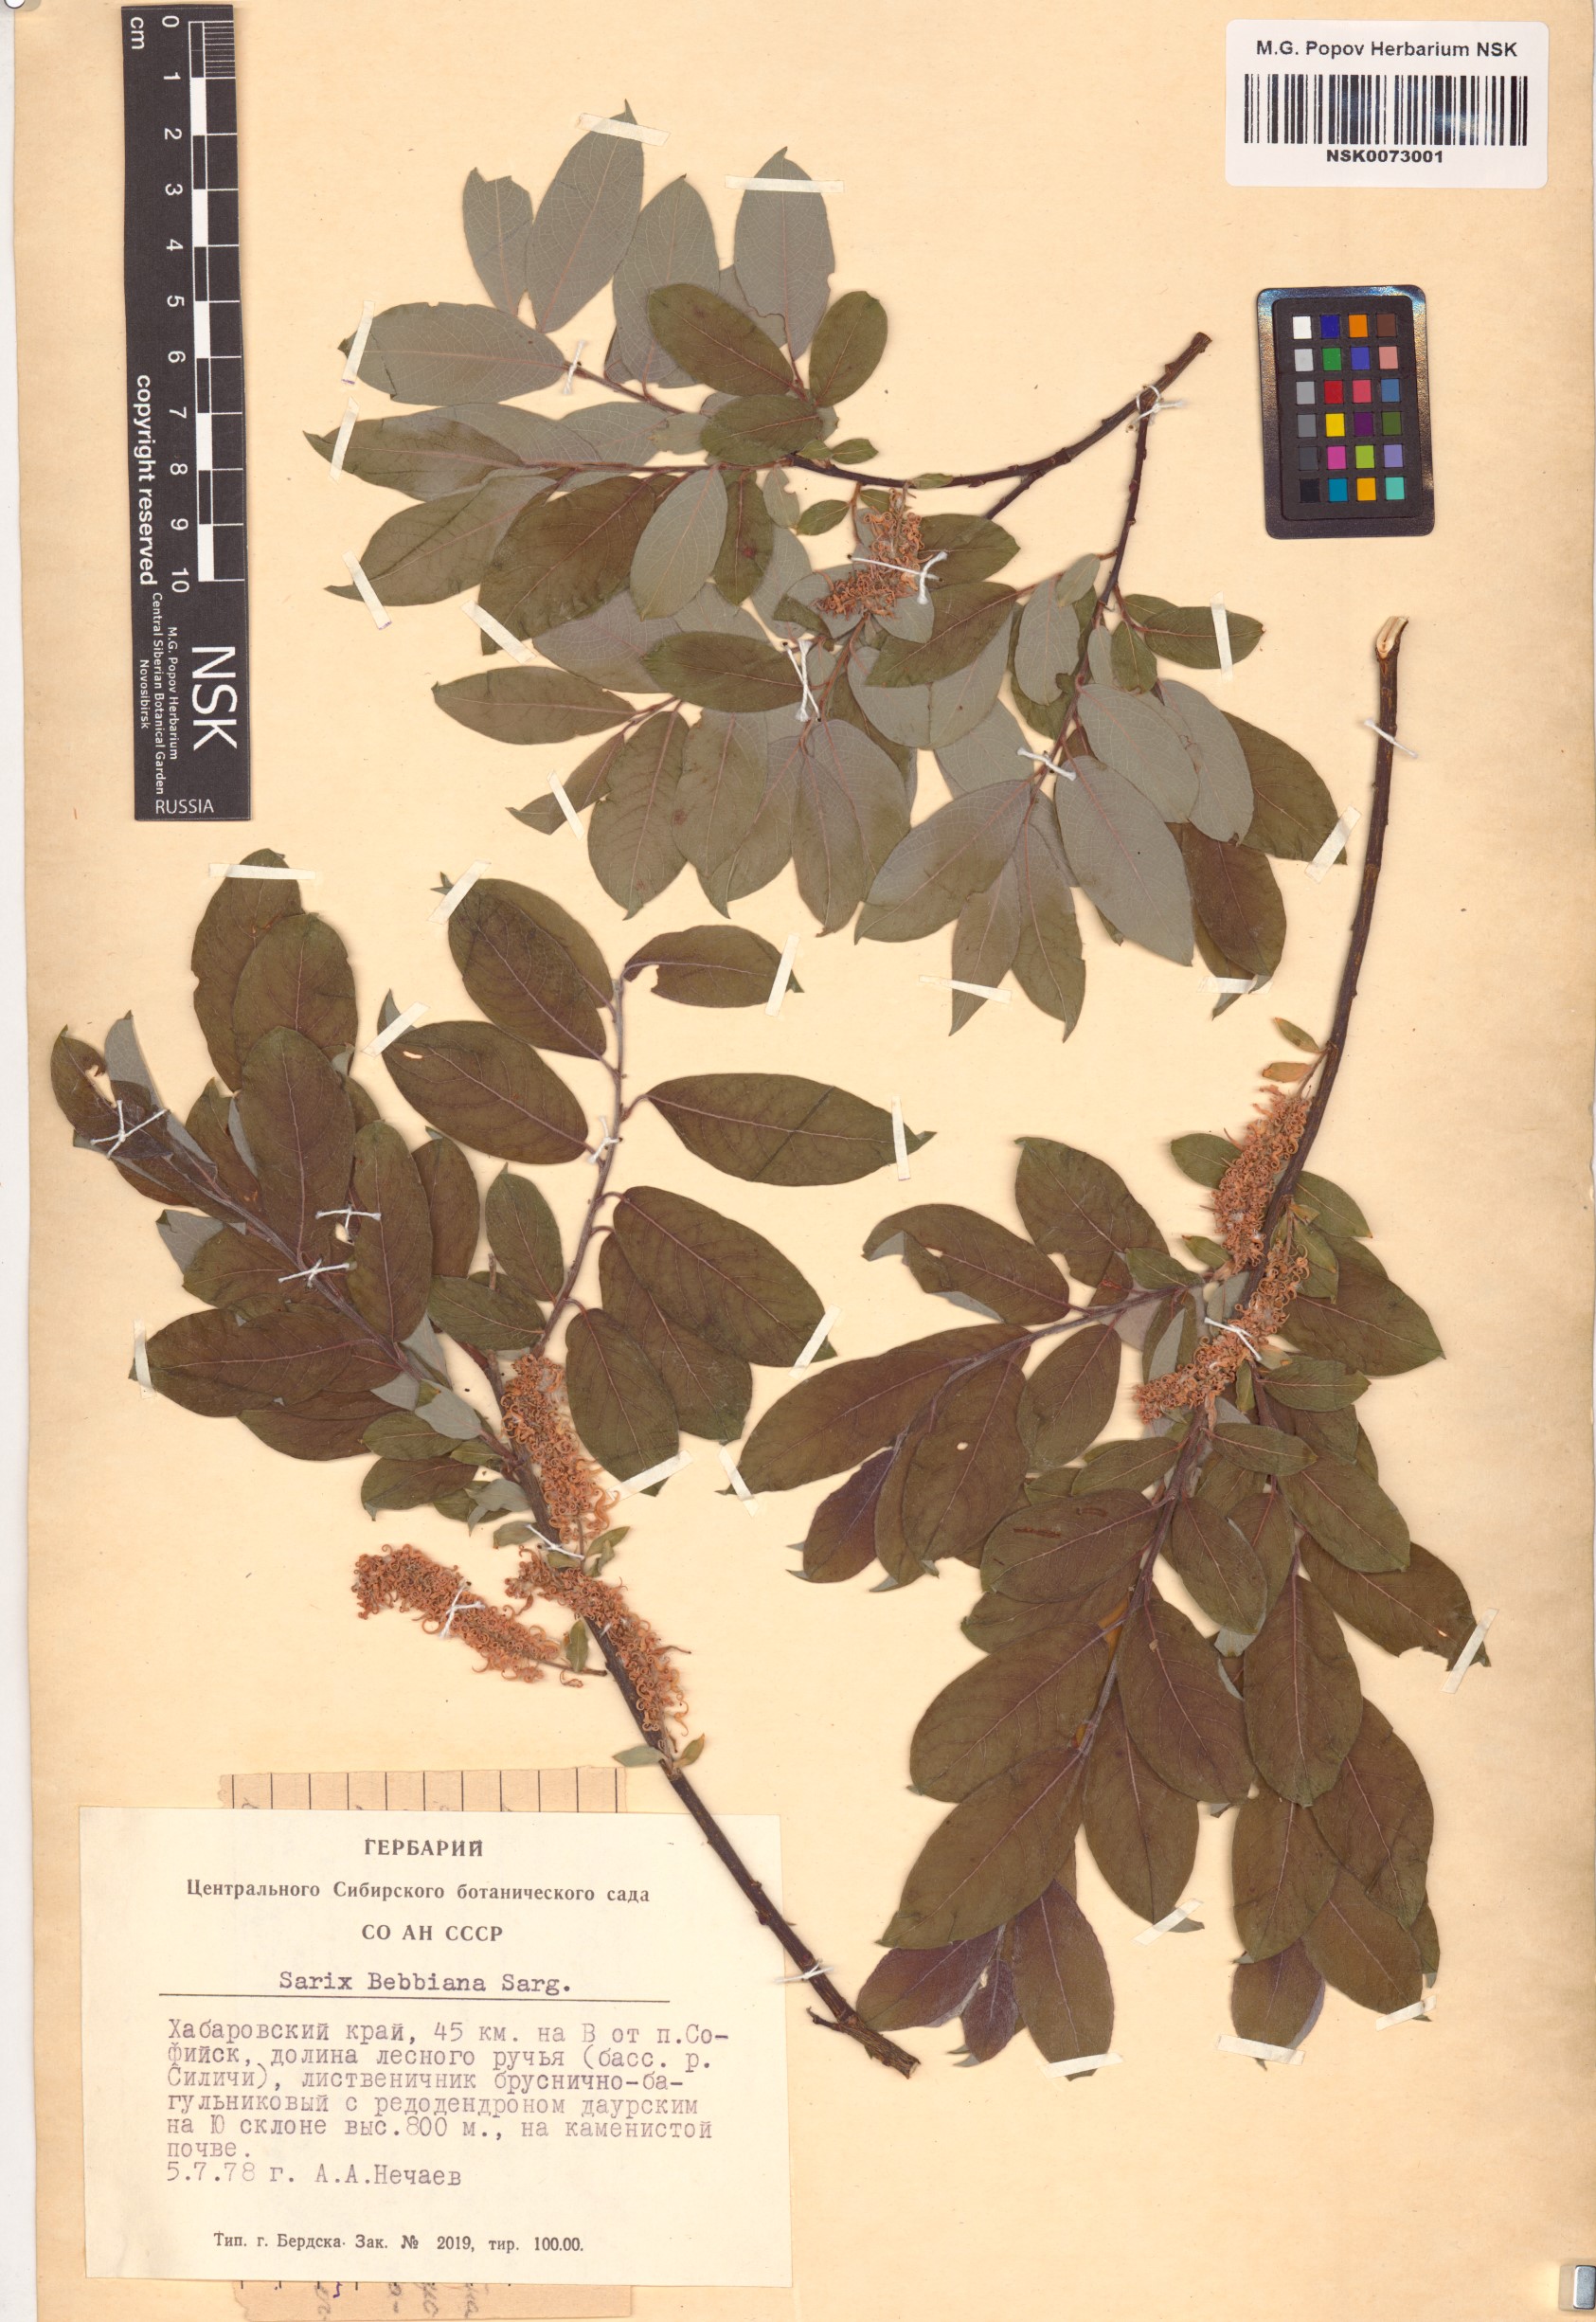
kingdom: Plantae
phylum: Tracheophyta
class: Magnoliopsida
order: Malpighiales
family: Salicaceae
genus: Salix
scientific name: Salix bebbiana
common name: Bebb's willow
